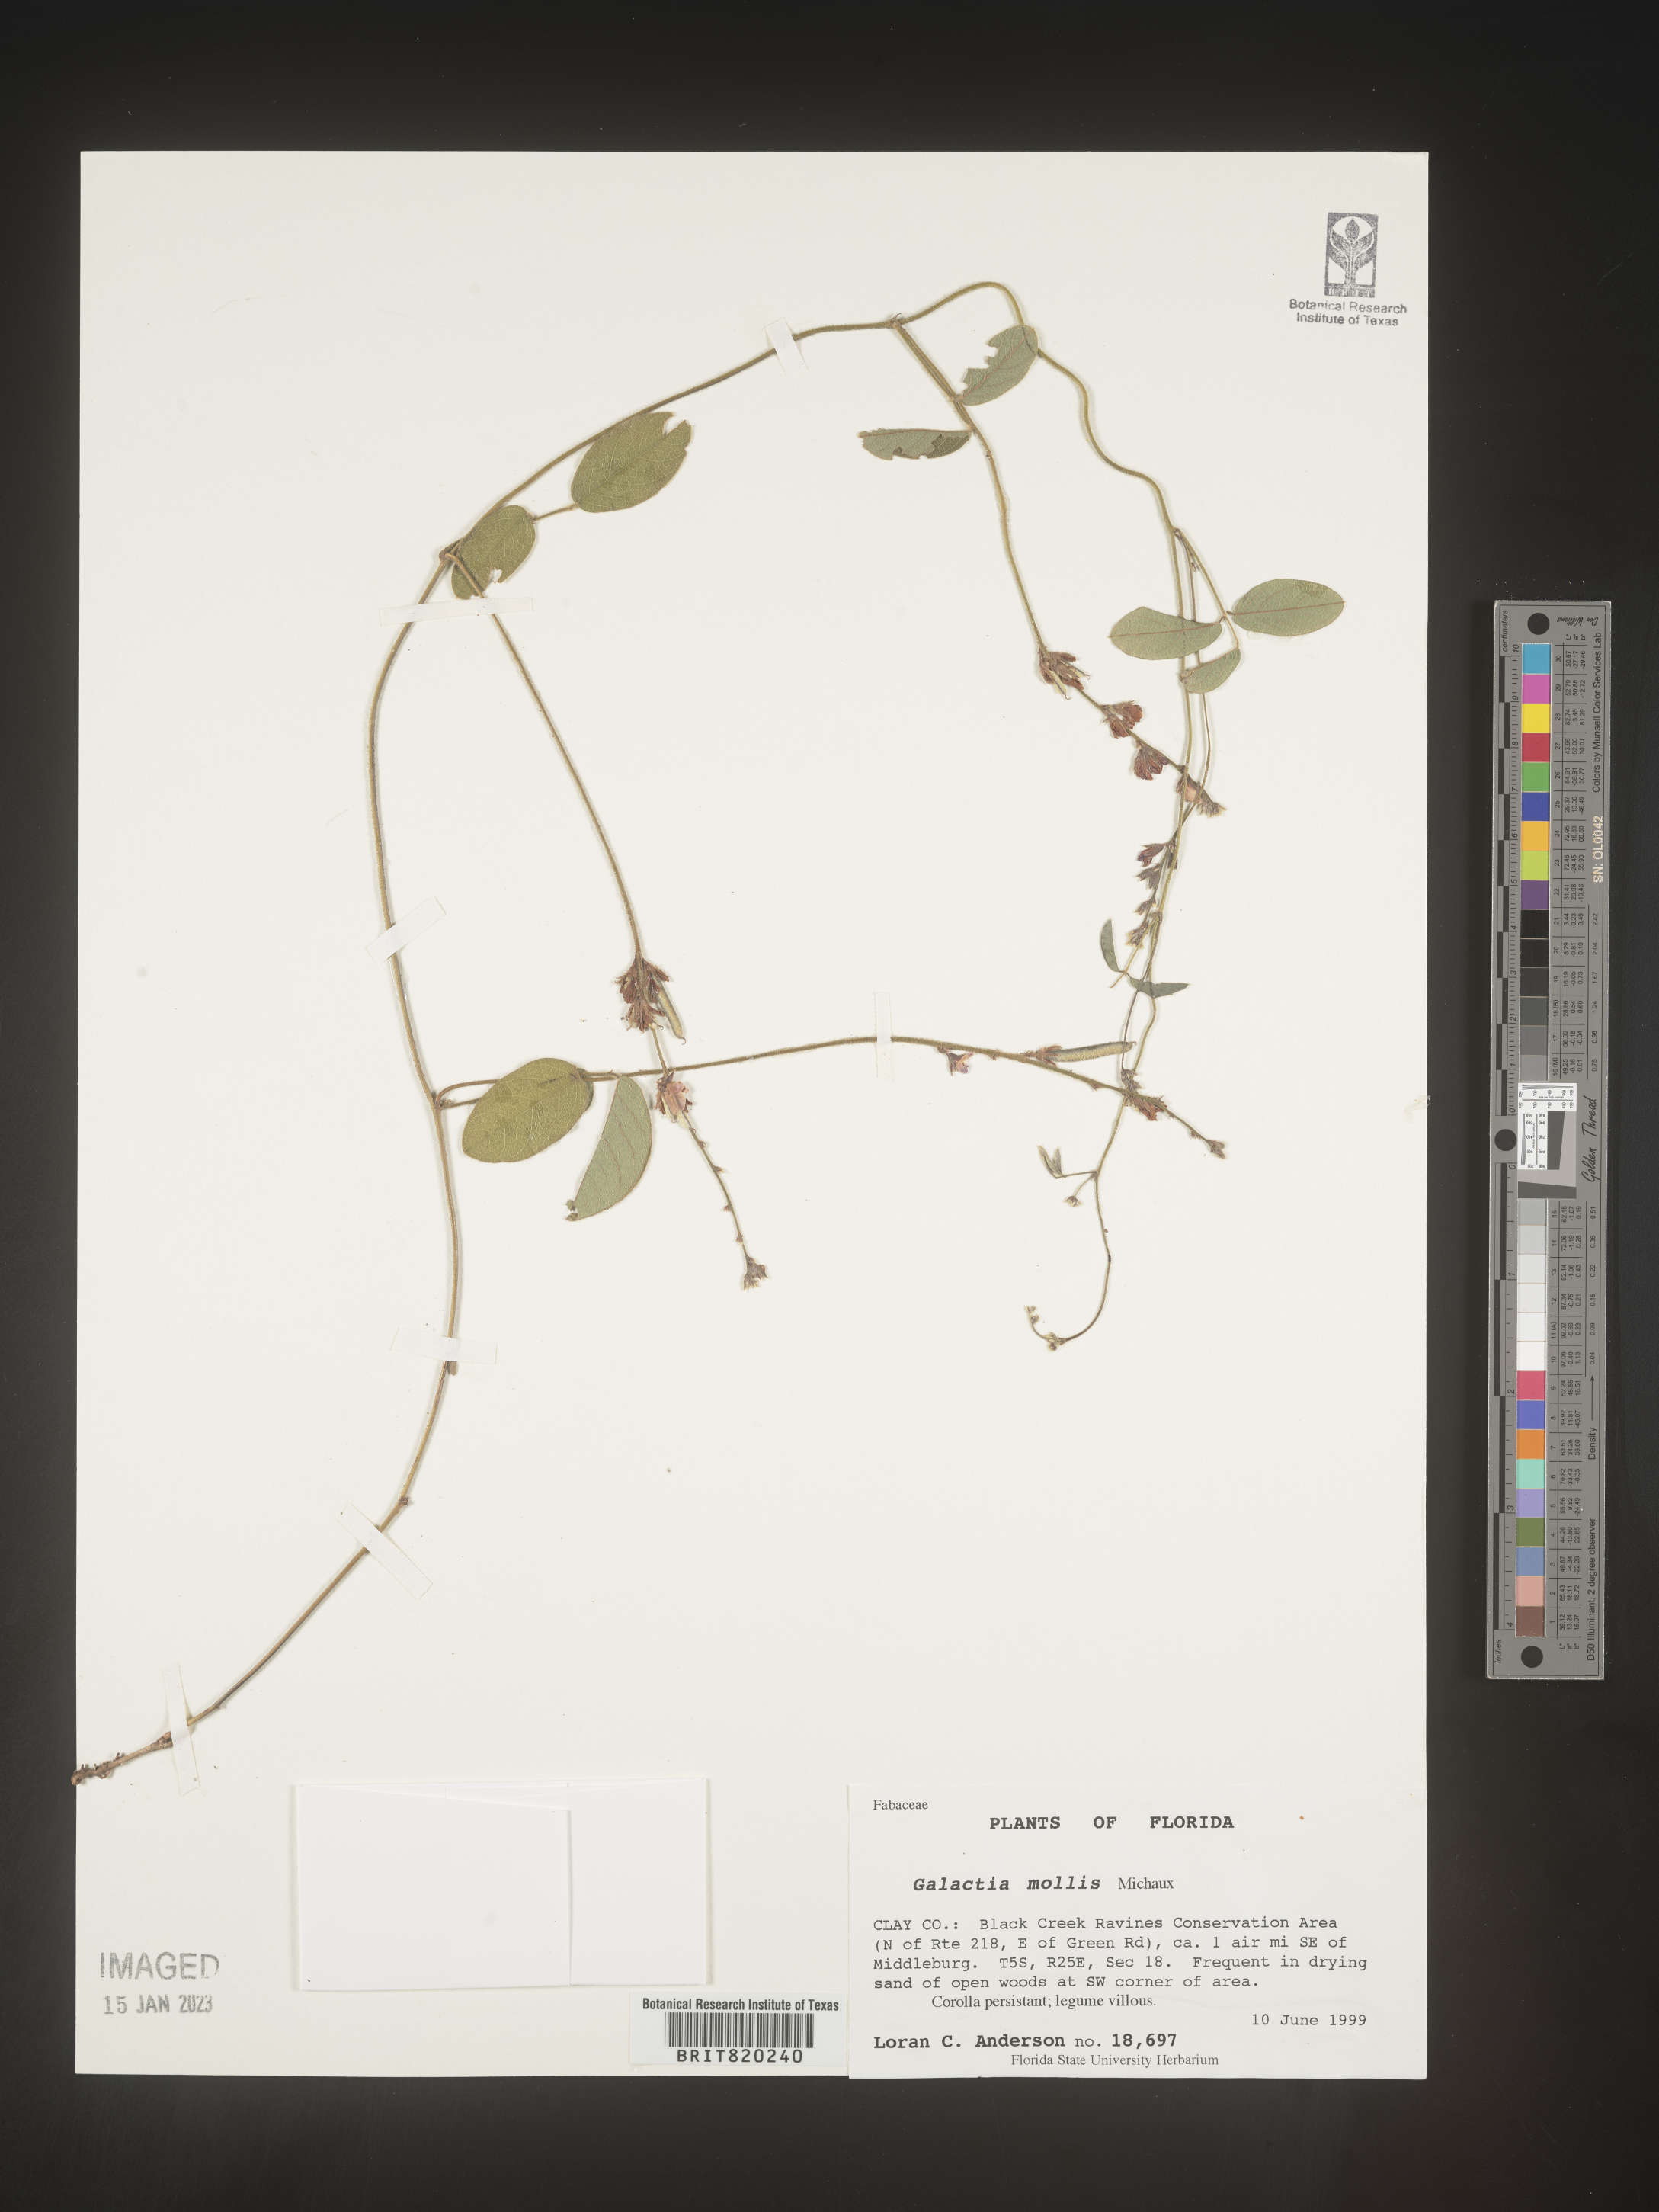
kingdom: Plantae
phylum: Tracheophyta
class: Magnoliopsida
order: Fabales
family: Fabaceae
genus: Galactia
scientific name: Galactia mollis
